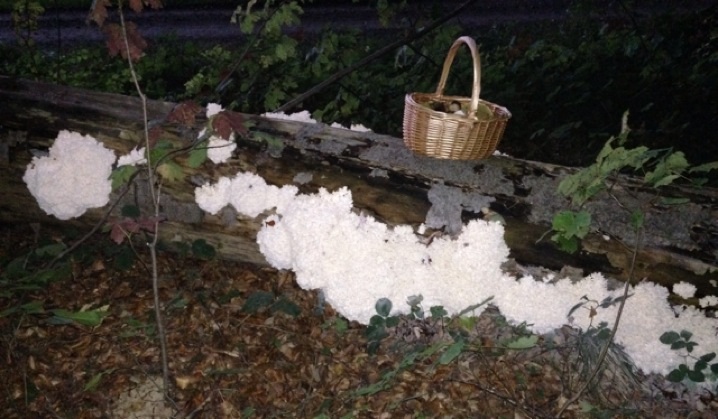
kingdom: Fungi
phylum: Basidiomycota
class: Agaricomycetes
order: Russulales
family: Hericiaceae
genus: Hericium
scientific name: Hericium coralloides
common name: koralpigsvamp
